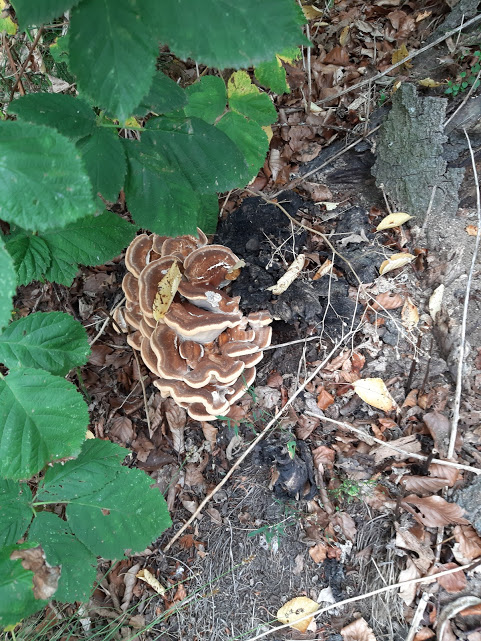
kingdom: Fungi
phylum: Basidiomycota
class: Agaricomycetes
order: Polyporales
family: Meripilaceae
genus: Meripilus
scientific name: Meripilus giganteus
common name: kæmpeporesvamp
